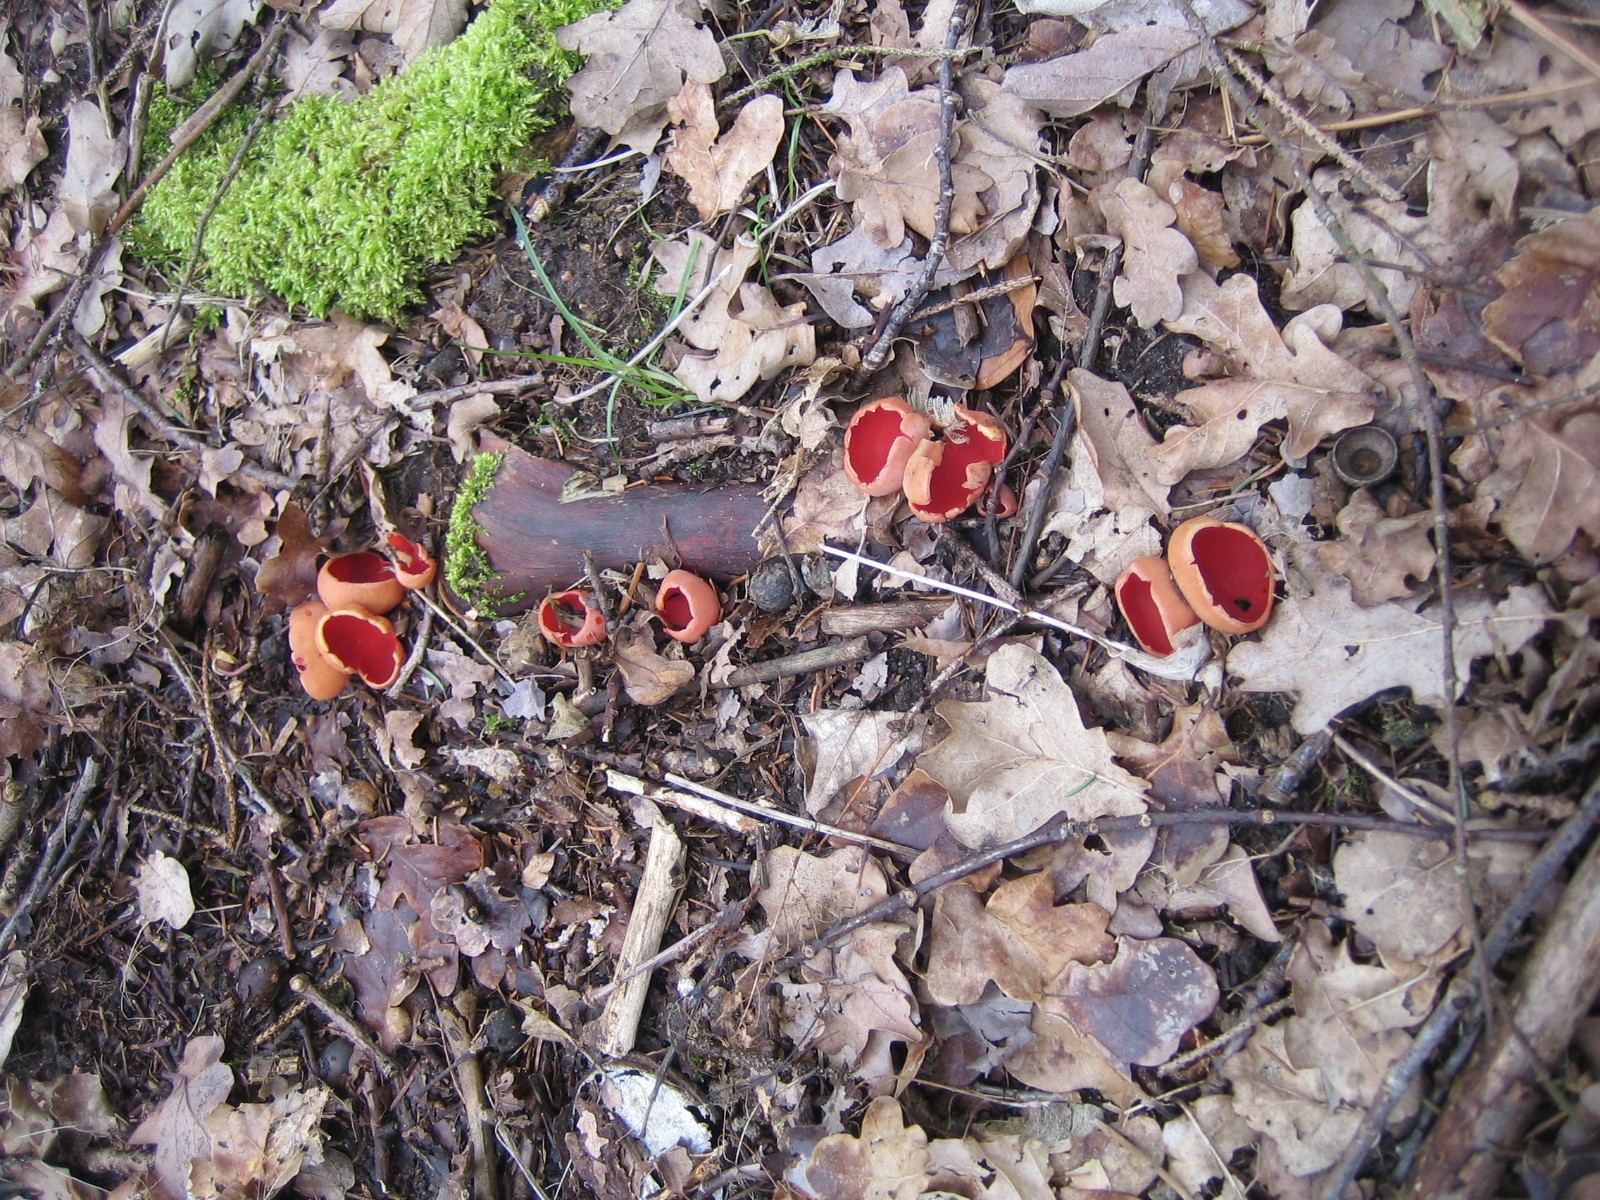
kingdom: Fungi
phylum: Ascomycota
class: Pezizomycetes
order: Pezizales
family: Sarcoscyphaceae
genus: Sarcoscypha
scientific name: Sarcoscypha austriaca
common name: krølhåret pragtbæger
